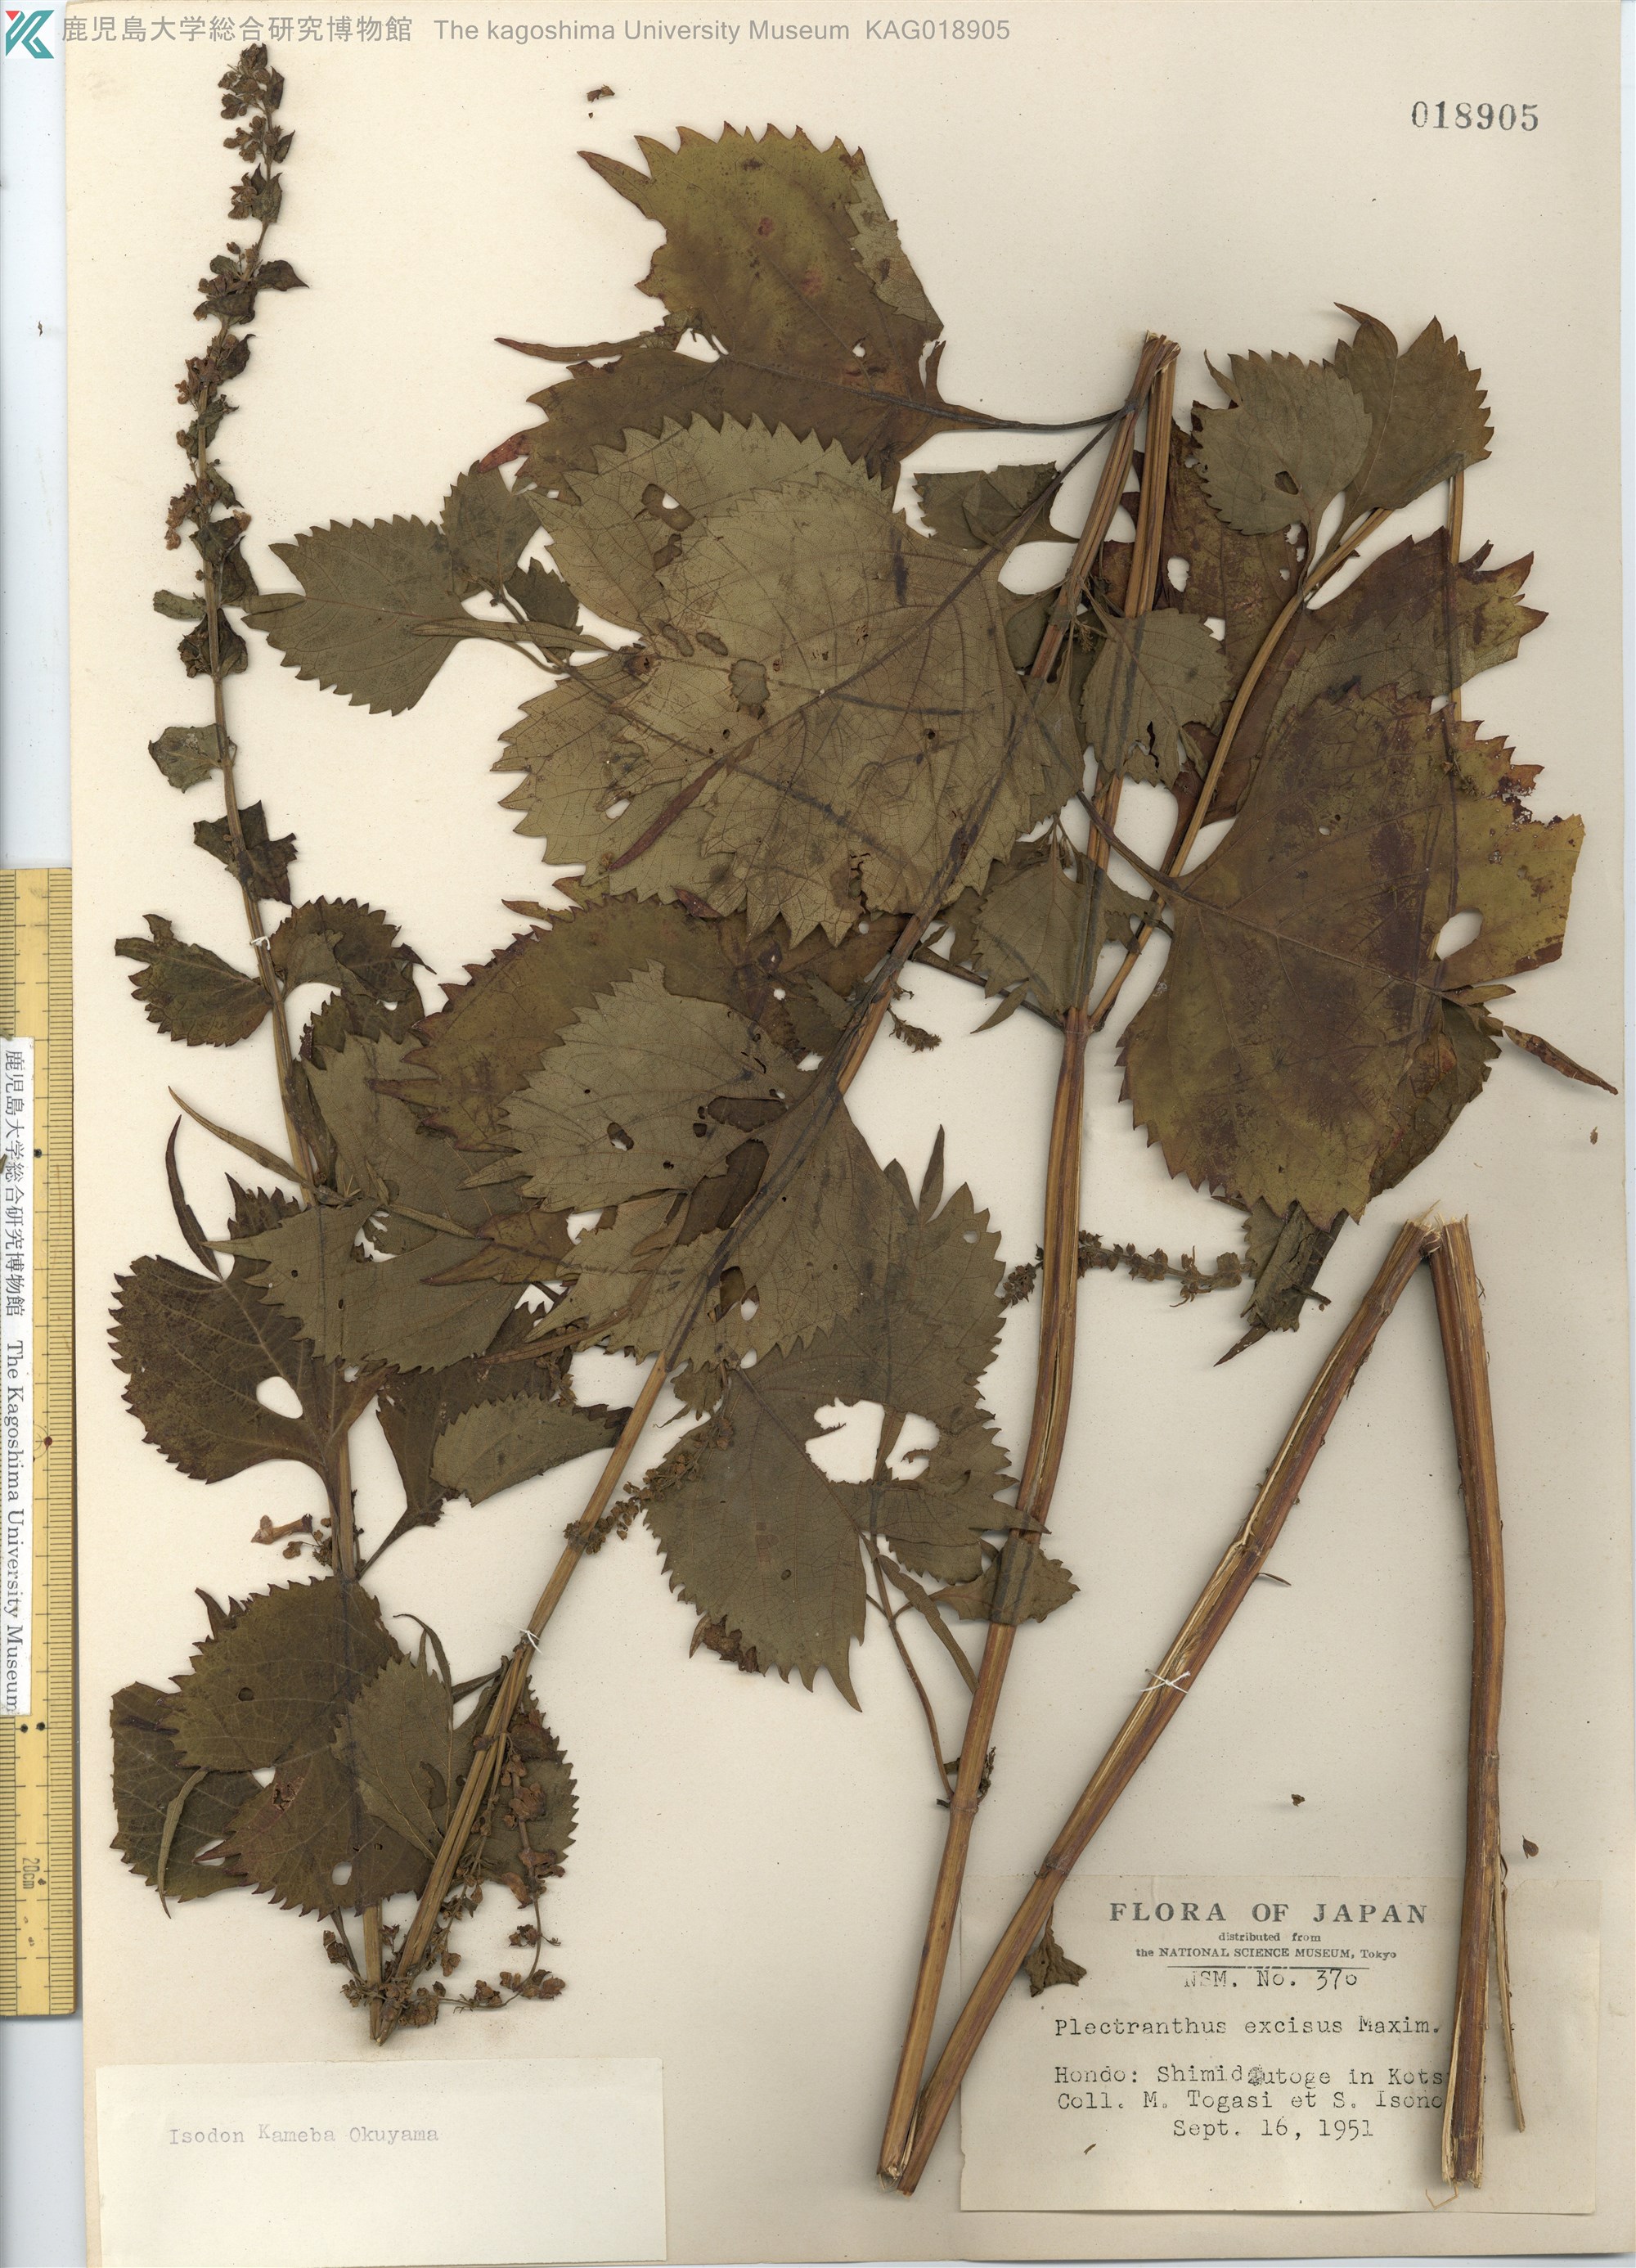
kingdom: Plantae
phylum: Tracheophyta
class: Magnoliopsida
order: Lamiales
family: Lamiaceae
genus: Isodon
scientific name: Isodon umbrosus
